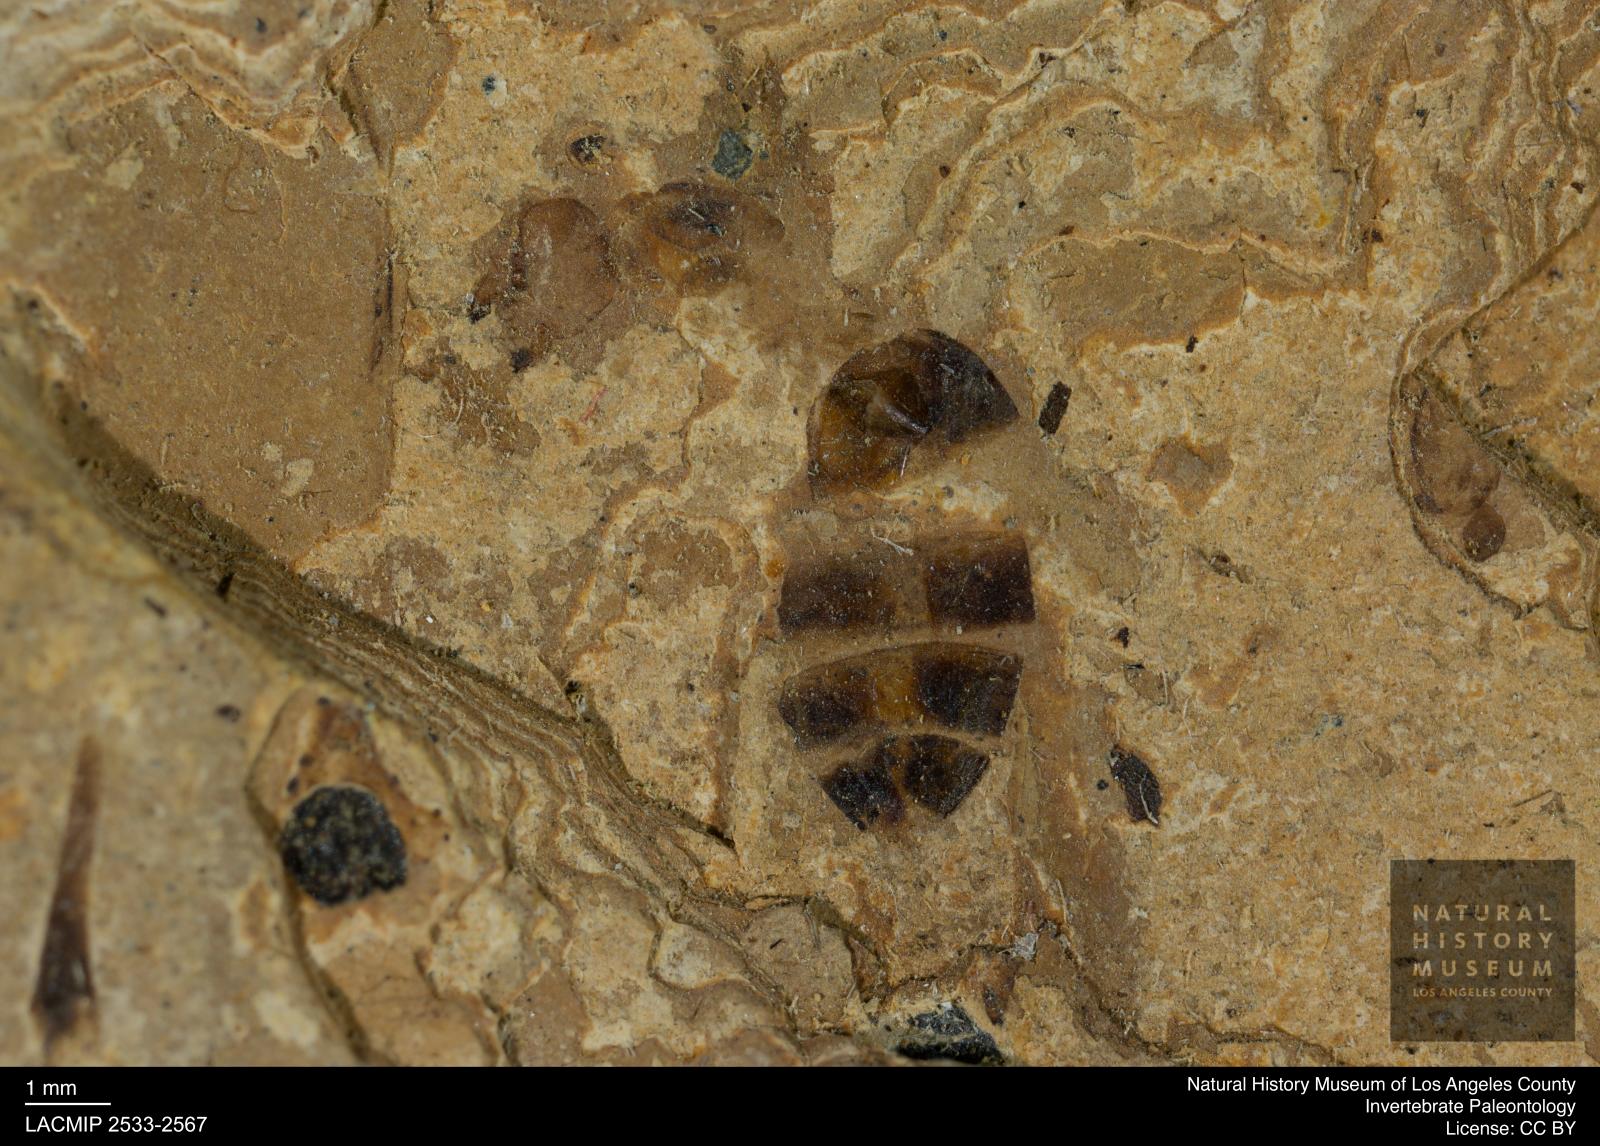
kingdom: Animalia
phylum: Arthropoda
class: Insecta
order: Hymenoptera
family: Formicidae
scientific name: Formicidae
